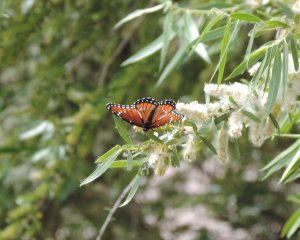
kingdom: Animalia
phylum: Arthropoda
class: Insecta
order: Lepidoptera
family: Nymphalidae
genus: Limenitis
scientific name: Limenitis archippus
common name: Viceroy
